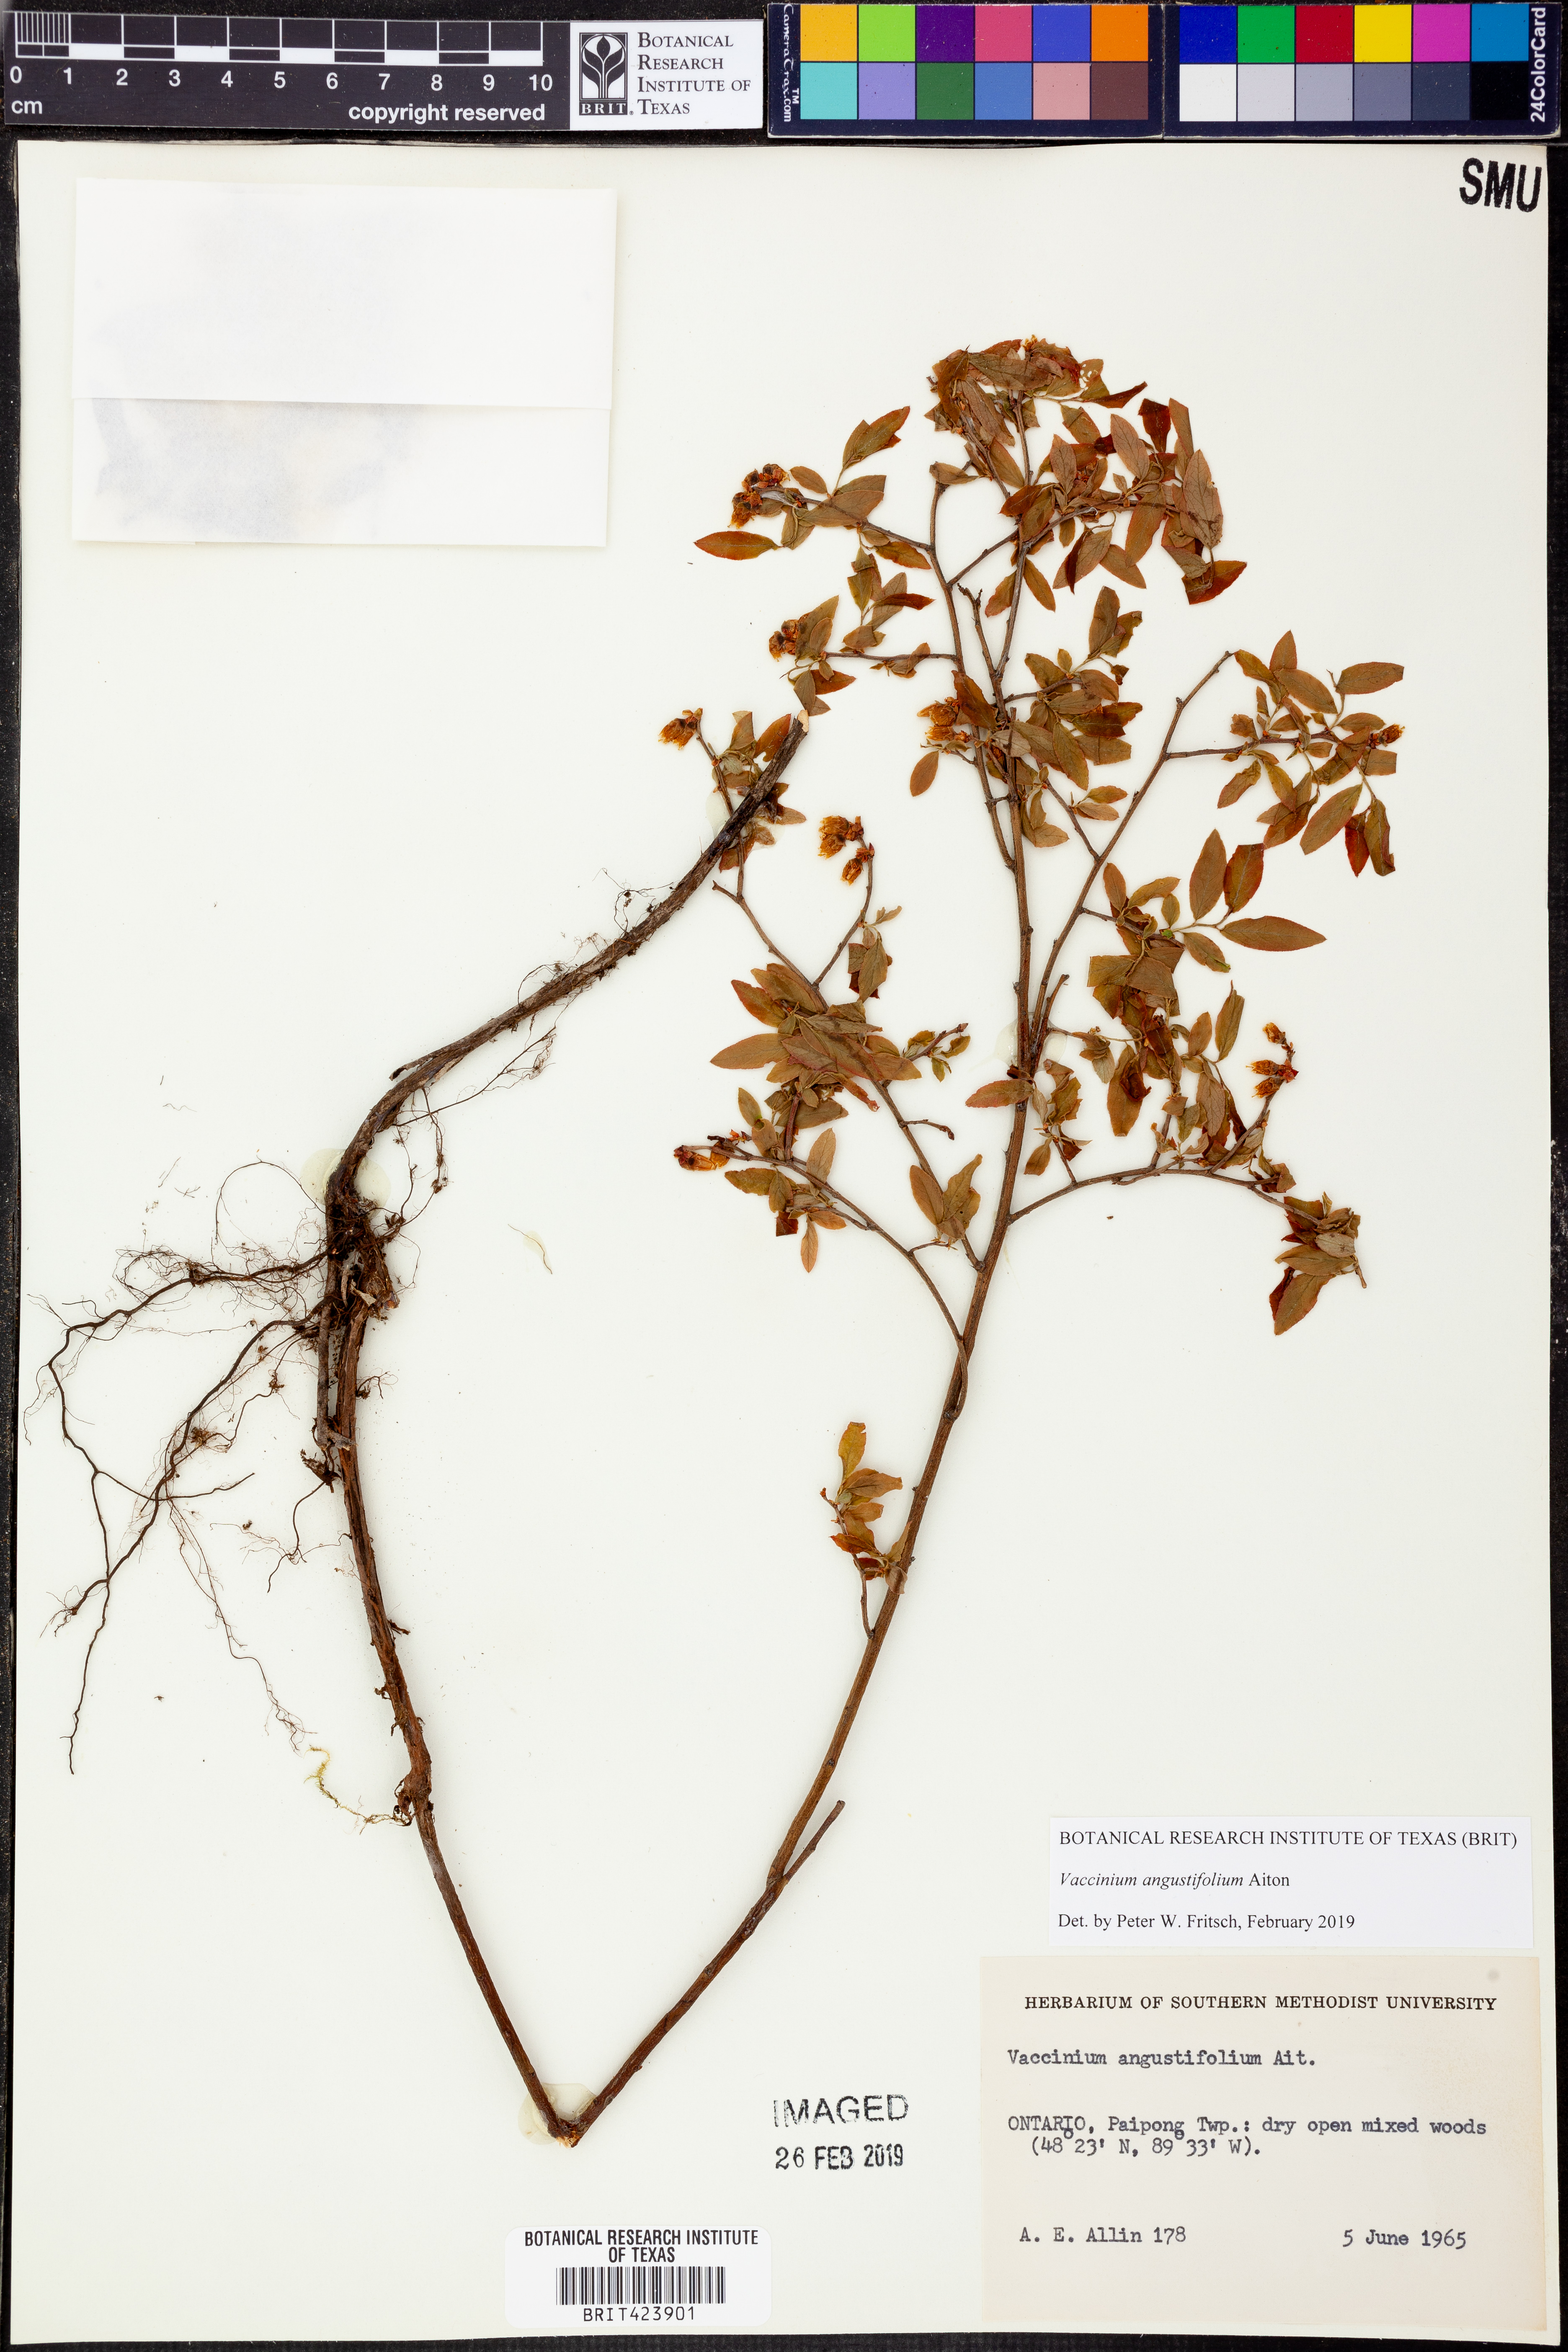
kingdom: Plantae
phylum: Tracheophyta
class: Magnoliopsida
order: Ericales
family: Ericaceae
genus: Vaccinium
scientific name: Vaccinium angustifolium
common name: Early lowbush blueberry
